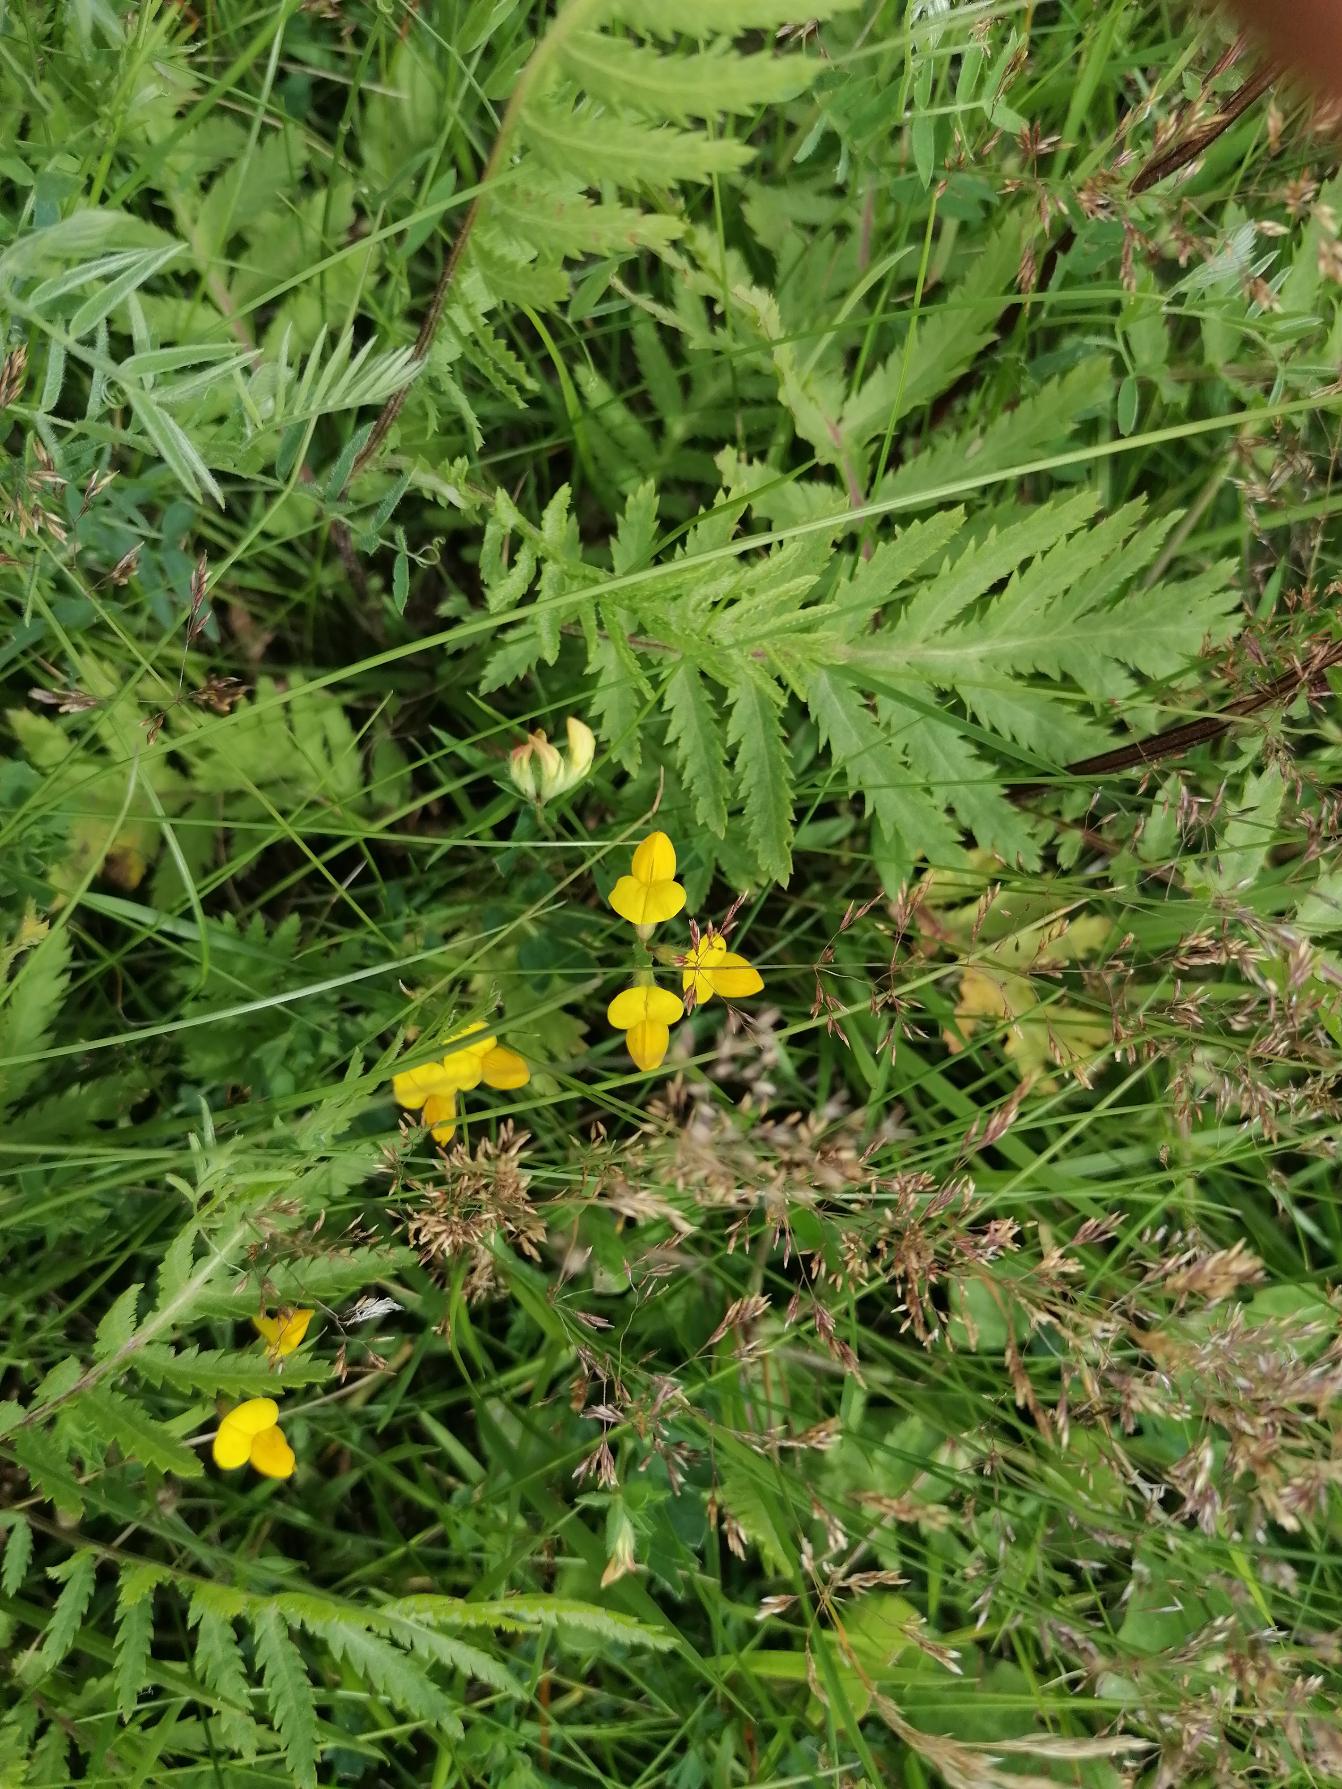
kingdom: Plantae
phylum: Tracheophyta
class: Magnoliopsida
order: Fabales
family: Fabaceae
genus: Lotus
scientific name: Lotus corniculatus
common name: Almindelig kællingetand
